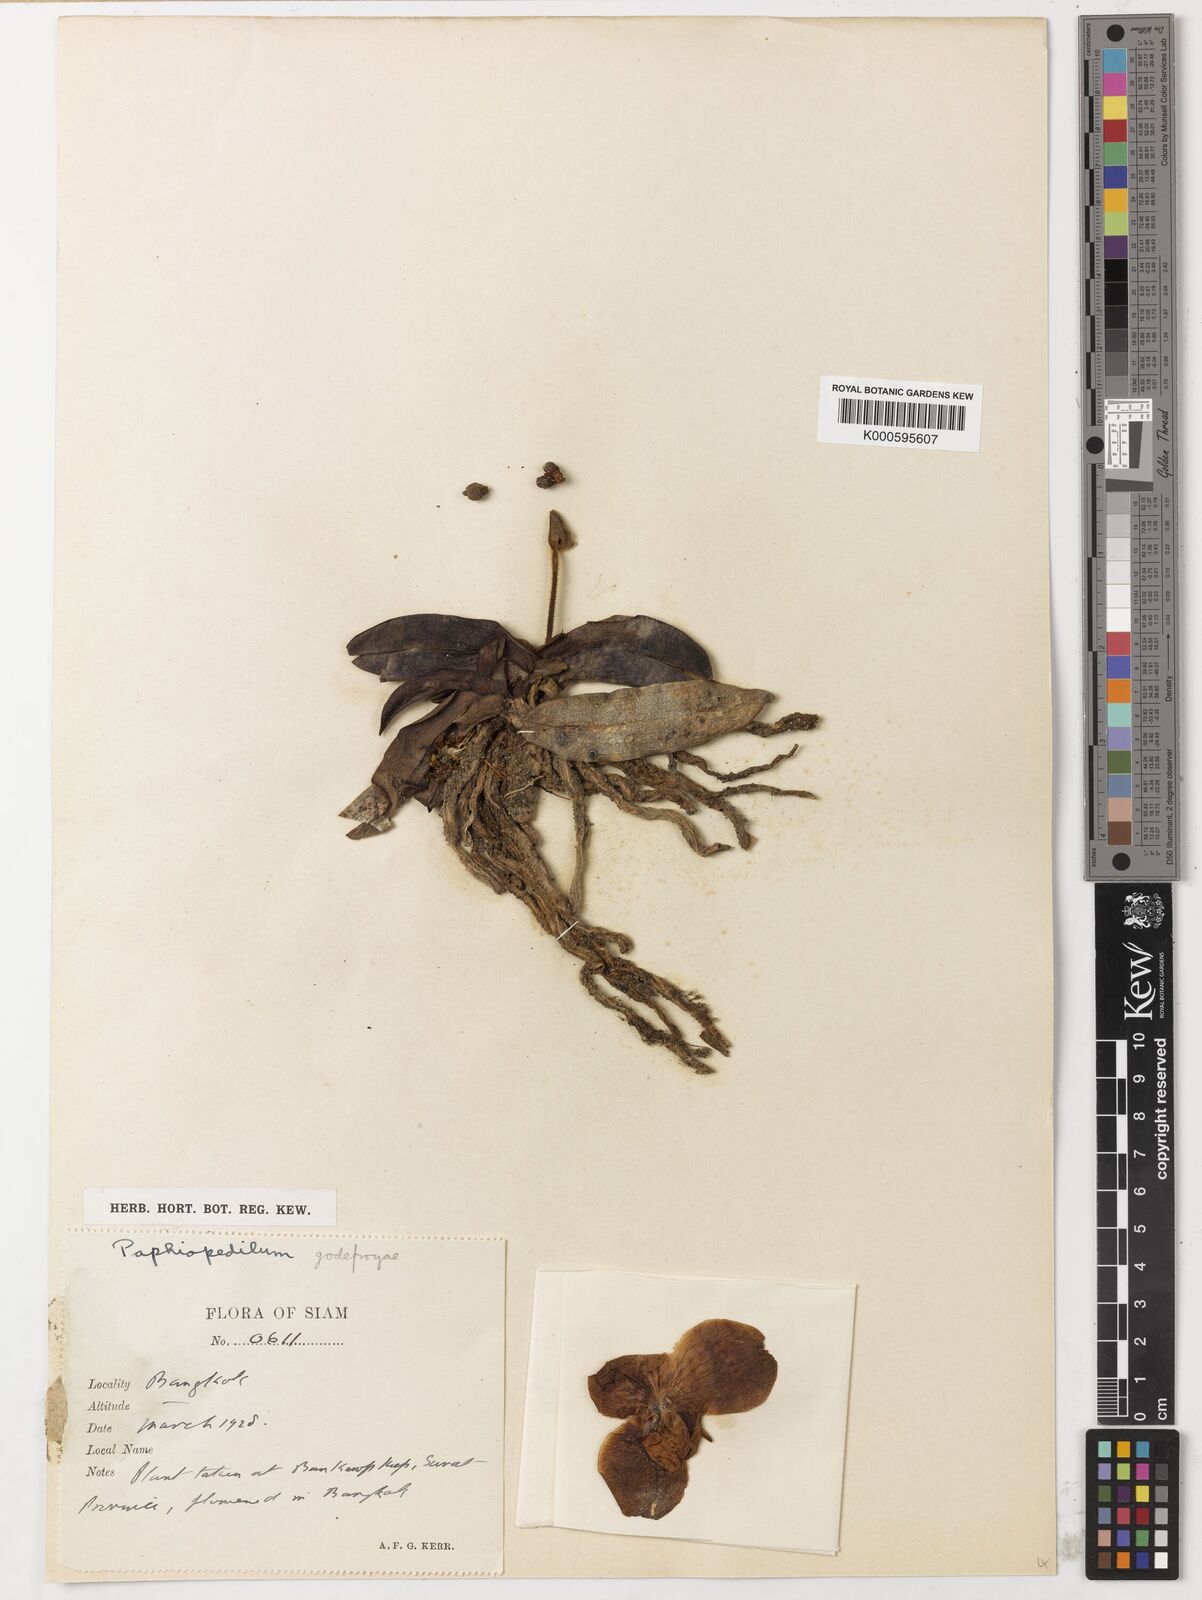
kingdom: Plantae
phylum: Tracheophyta
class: Liliopsida
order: Asparagales
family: Orchidaceae
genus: Paphiopedilum
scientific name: Paphiopedilum godefroyae
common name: Godefroy's paphiopedilum
